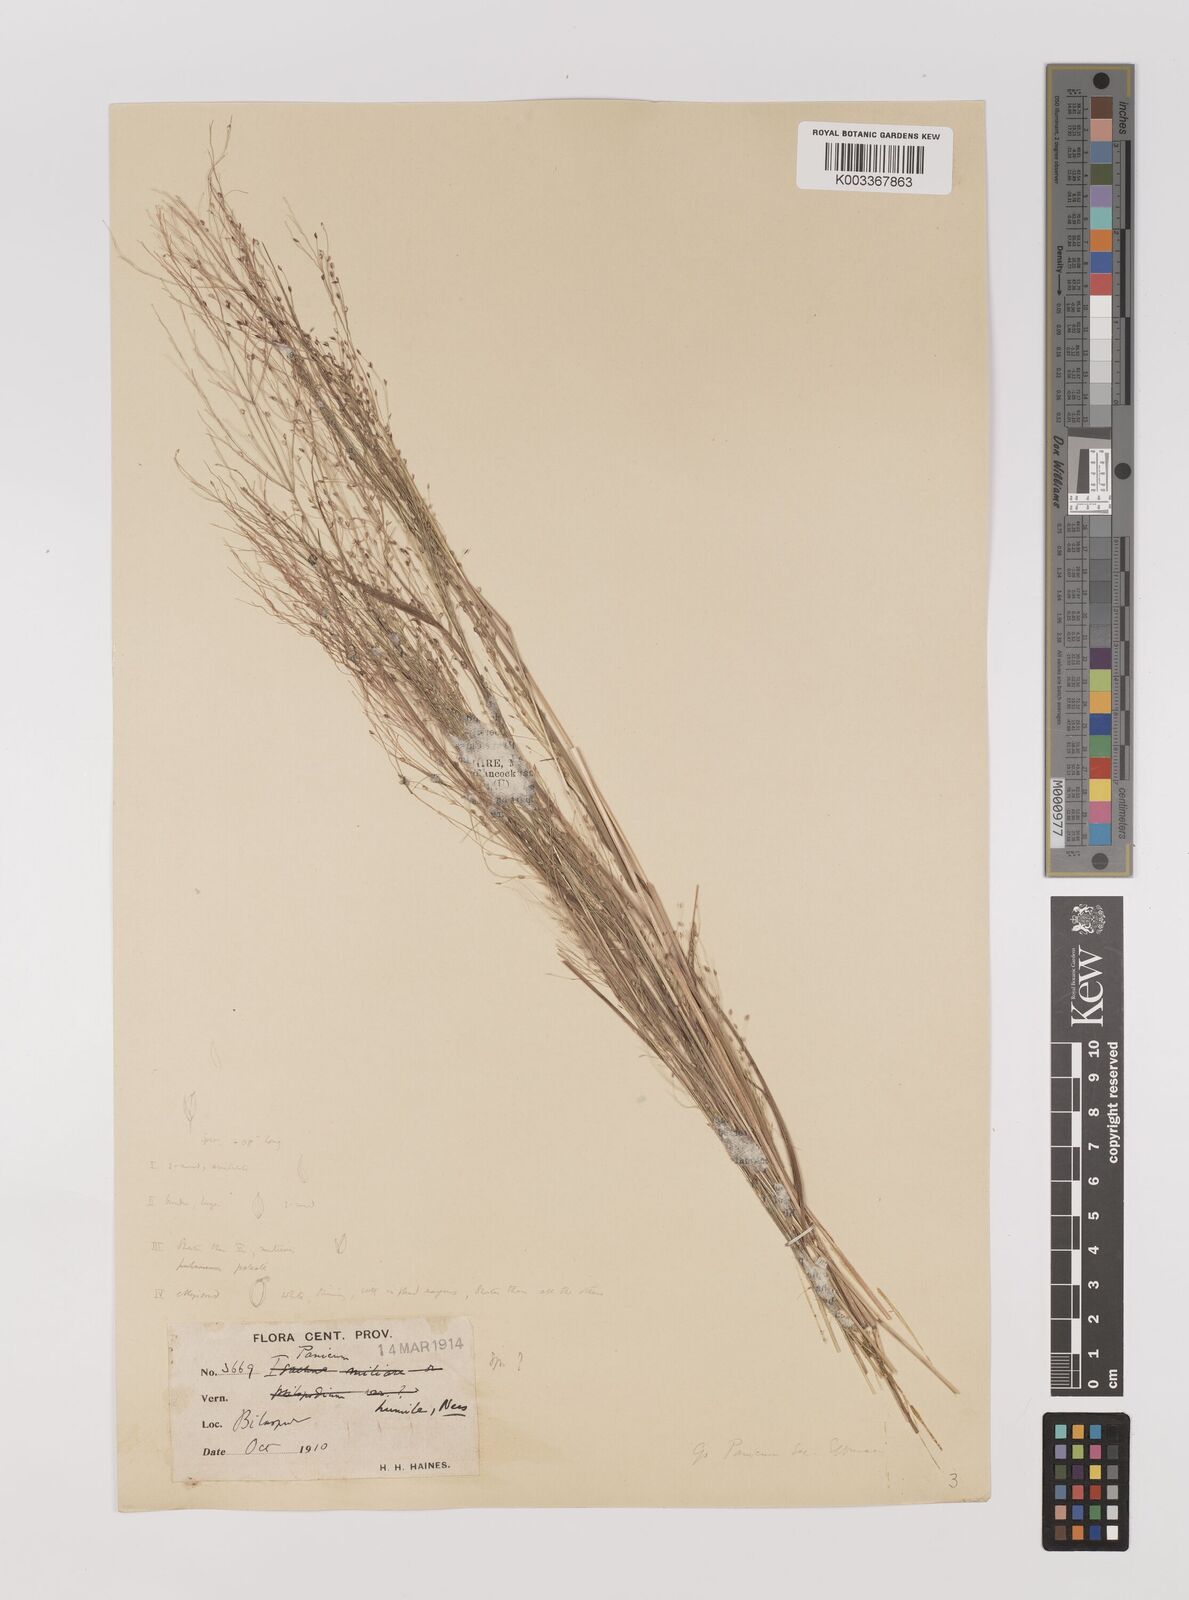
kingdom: Plantae
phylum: Tracheophyta
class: Liliopsida
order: Poales
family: Poaceae
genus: Panicum
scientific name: Panicum humile
